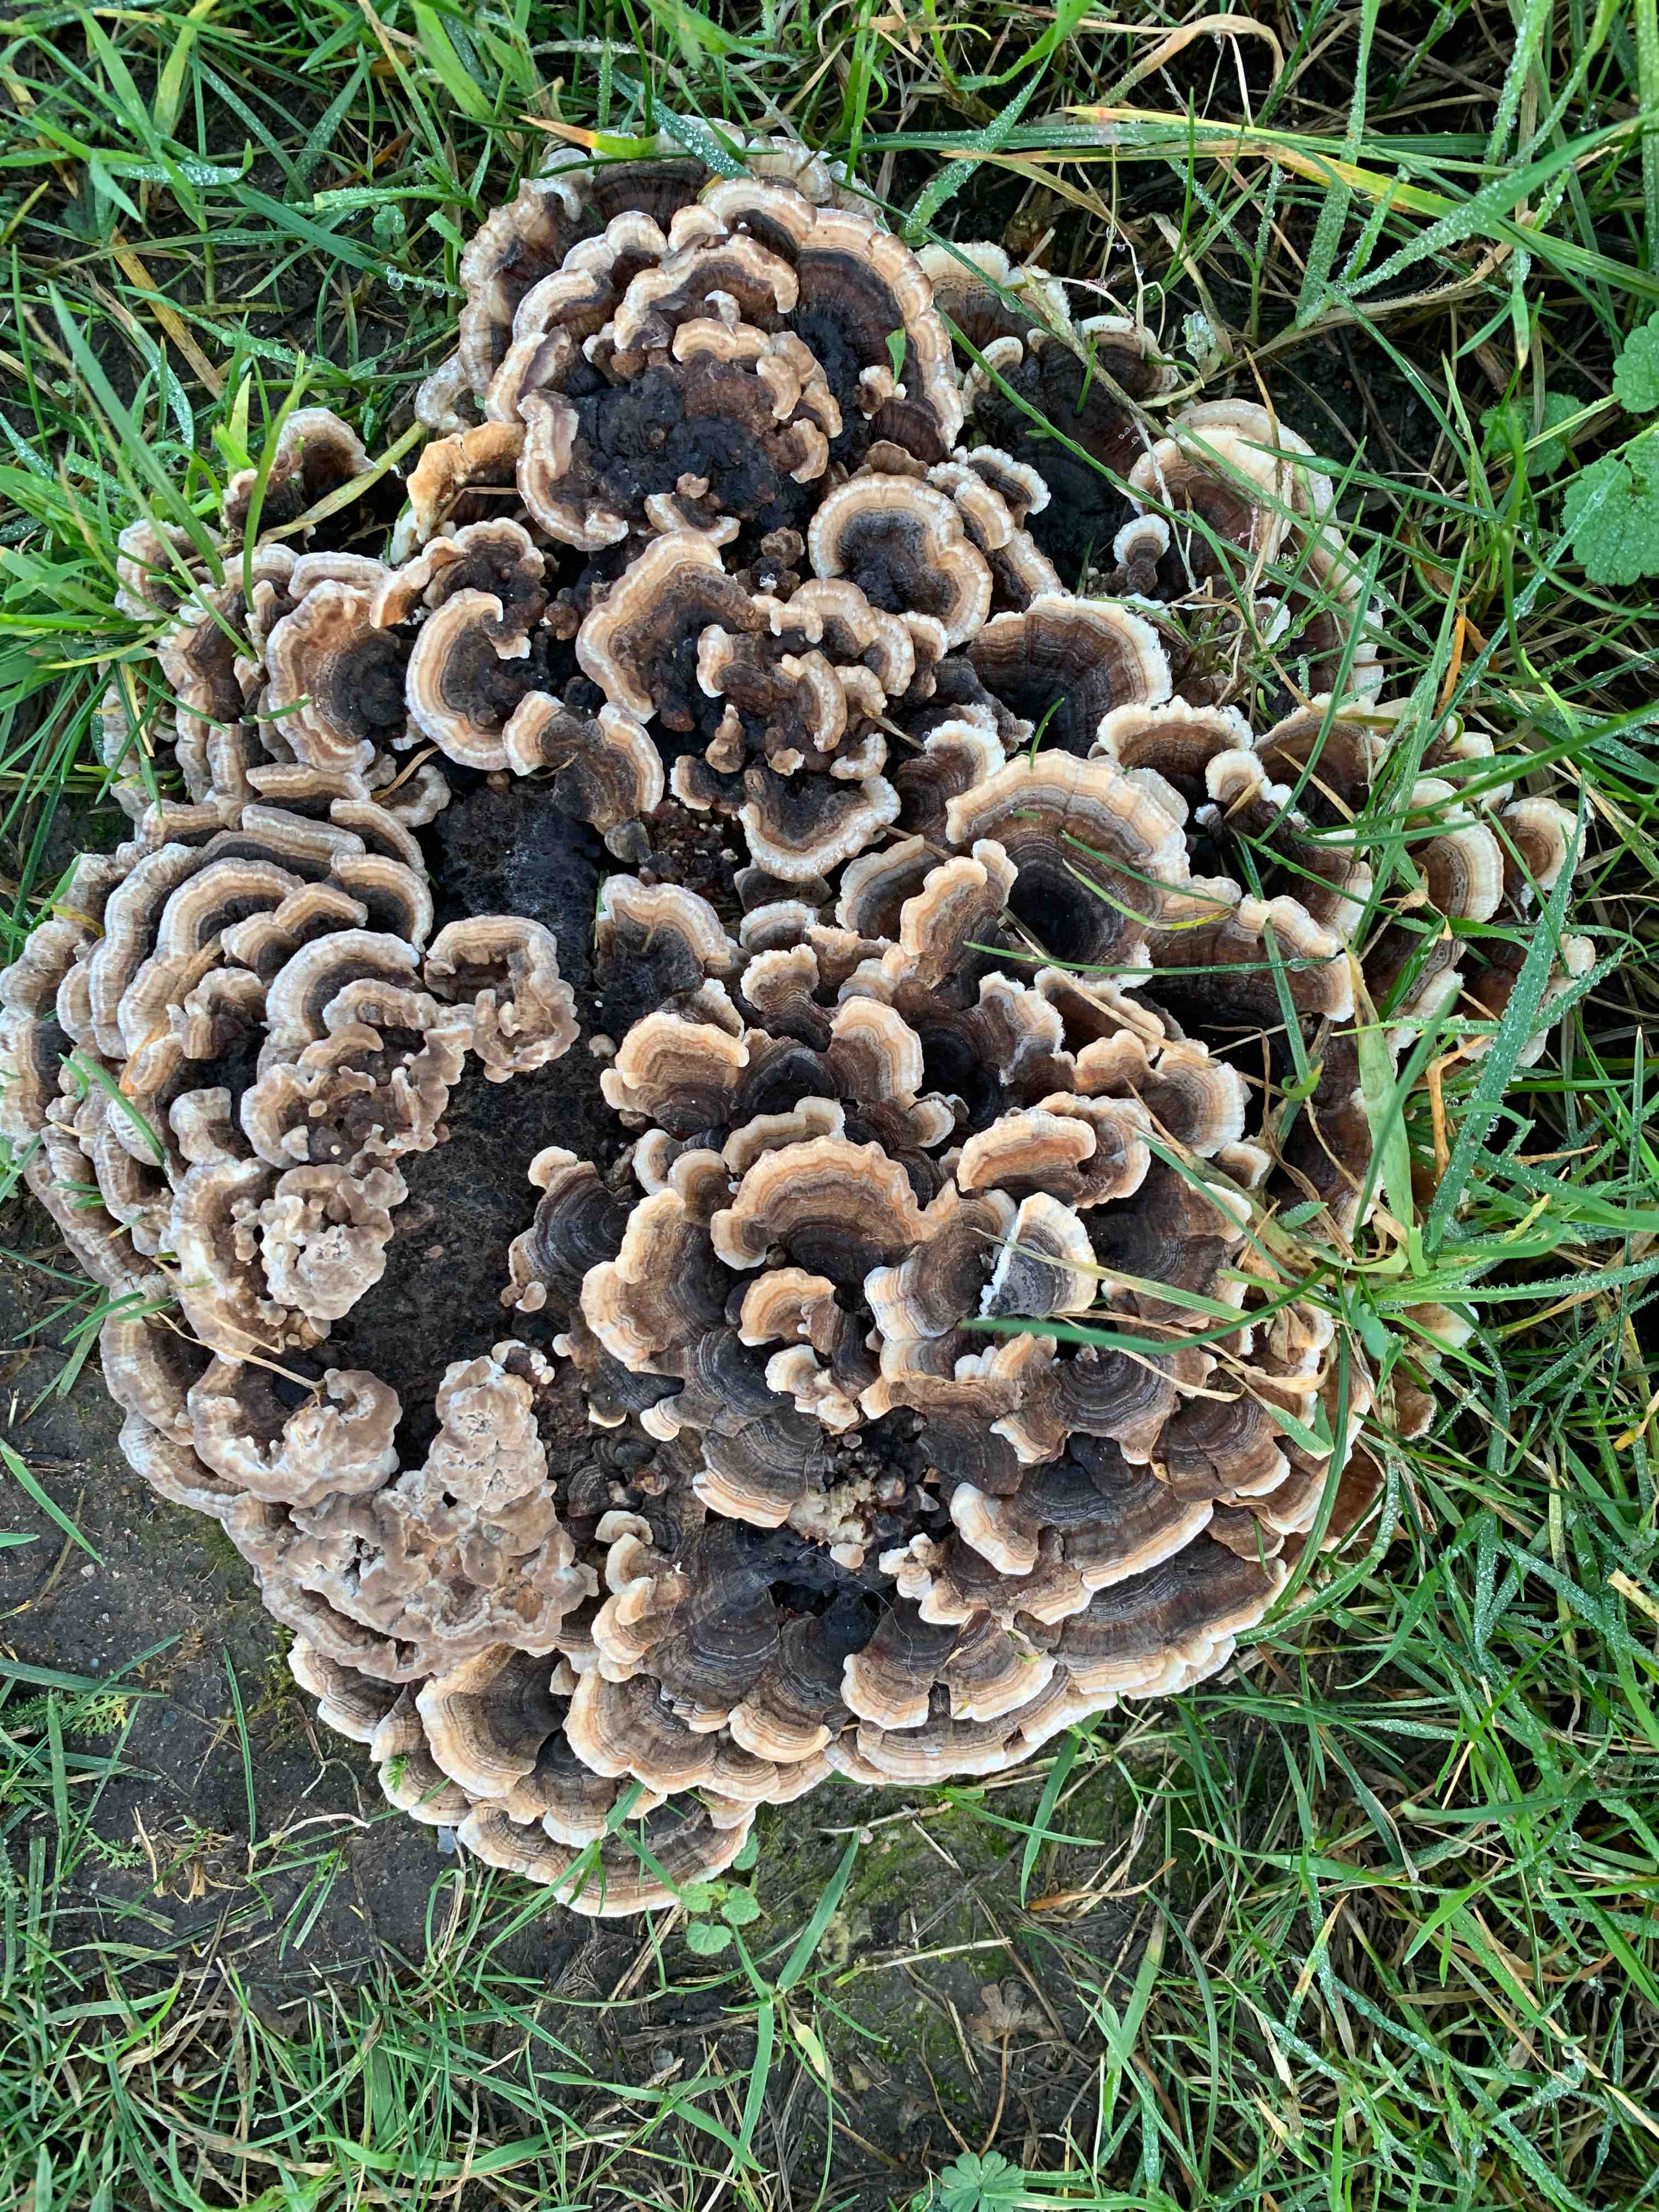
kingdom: Fungi
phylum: Basidiomycota
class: Agaricomycetes
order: Polyporales
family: Polyporaceae
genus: Trametes
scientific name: Trametes versicolor
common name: broget læderporesvamp
